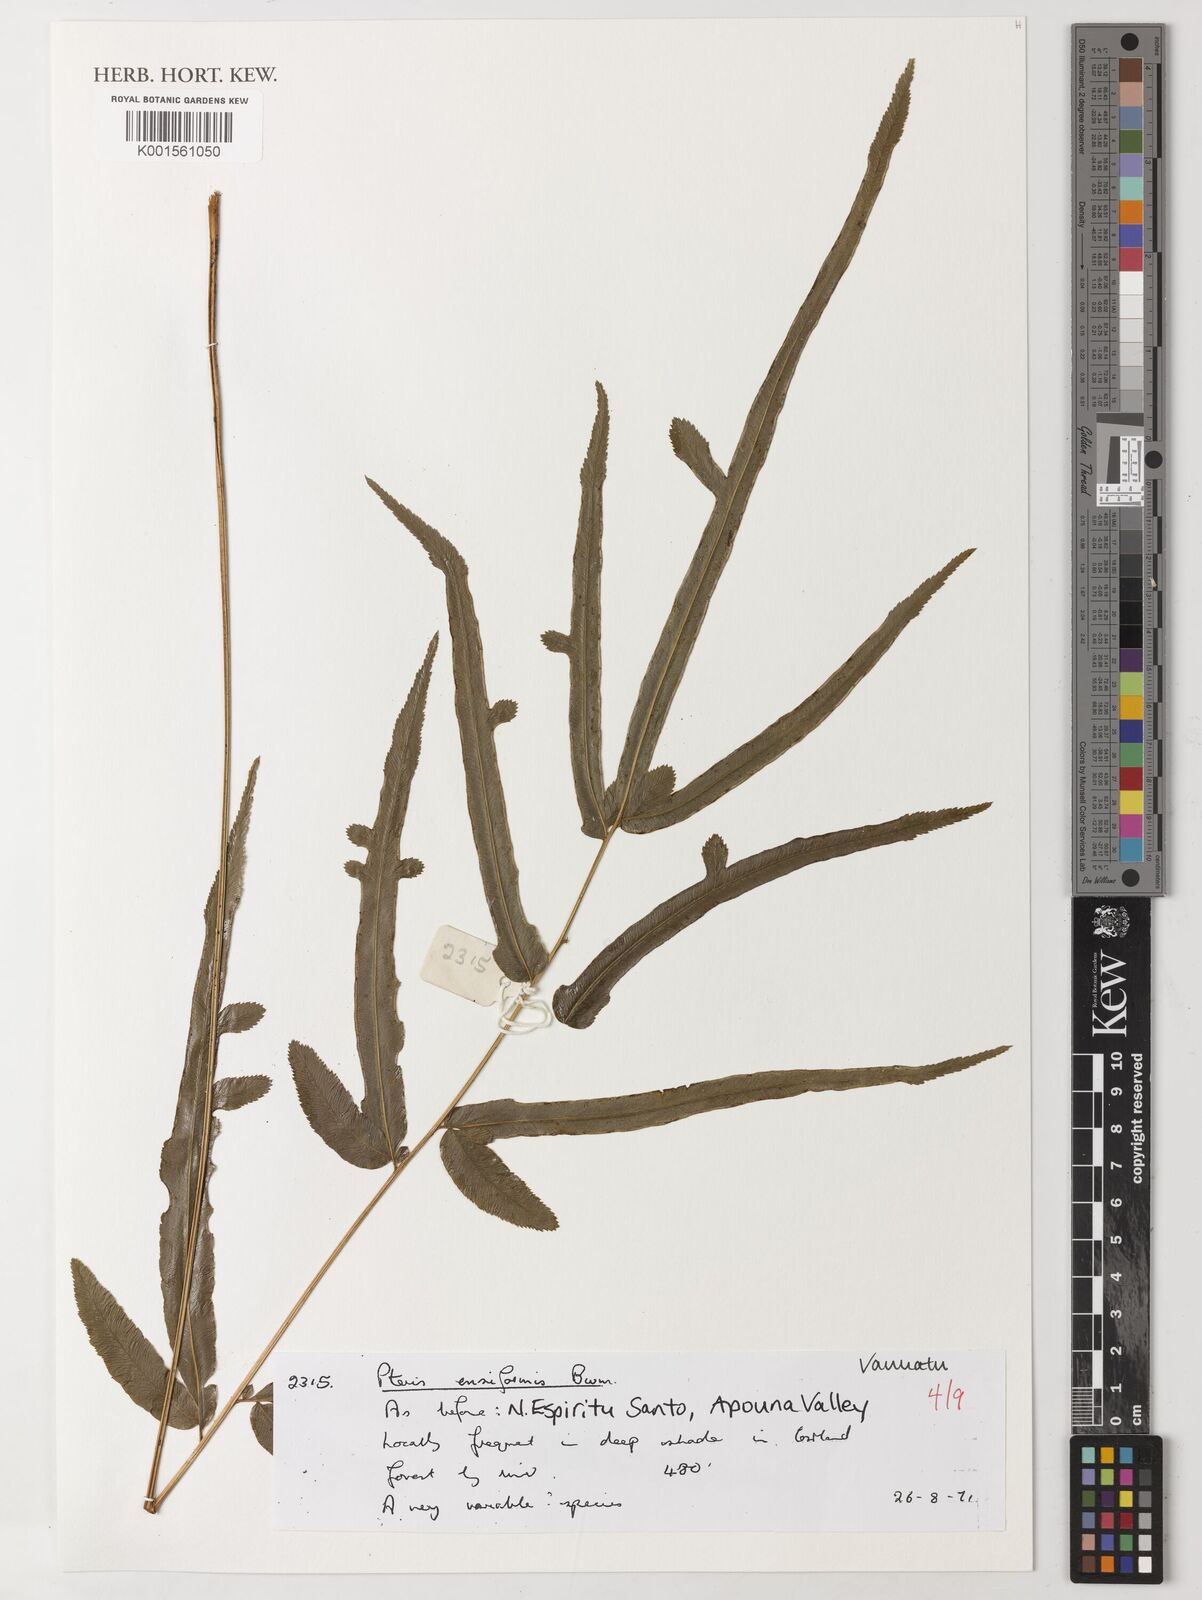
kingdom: Plantae
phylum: Tracheophyta
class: Polypodiopsida
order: Polypodiales
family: Pteridaceae
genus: Pteris
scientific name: Pteris ensiformis
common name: Sword brake
